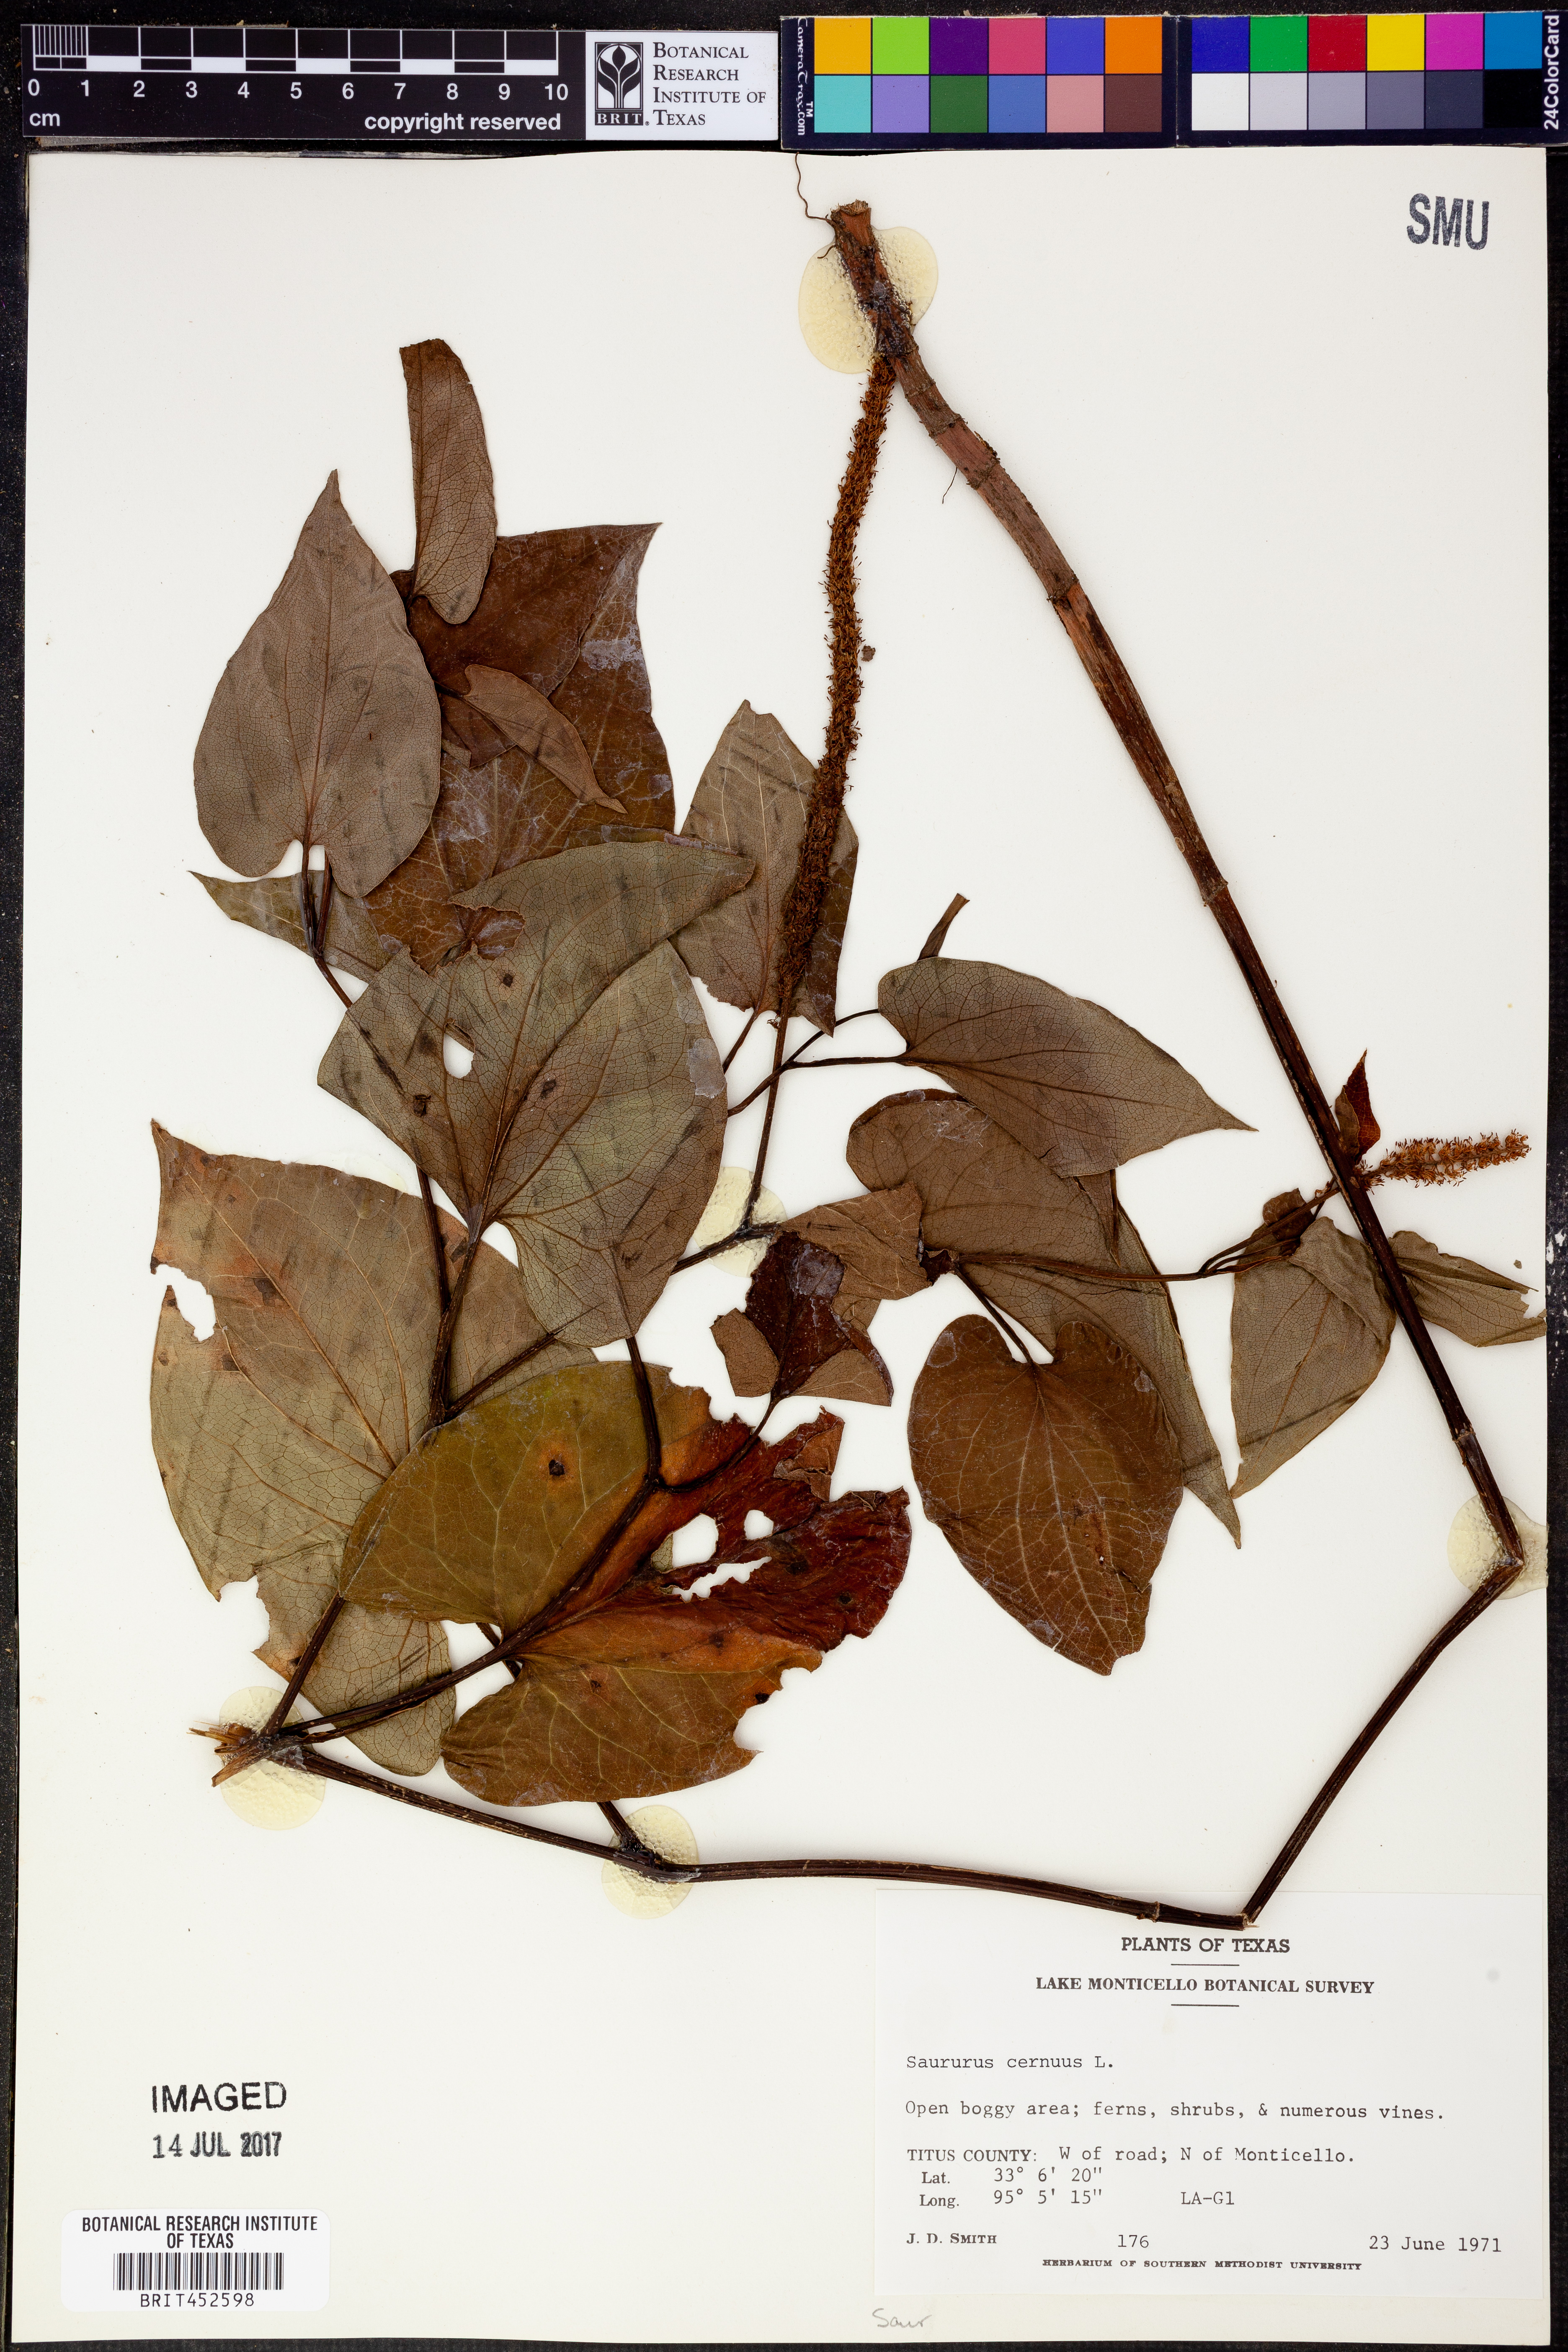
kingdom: Plantae
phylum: Tracheophyta
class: Magnoliopsida
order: Piperales
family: Saururaceae
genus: Saururus
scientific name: Saururus cernuus
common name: Lizard's-tail
